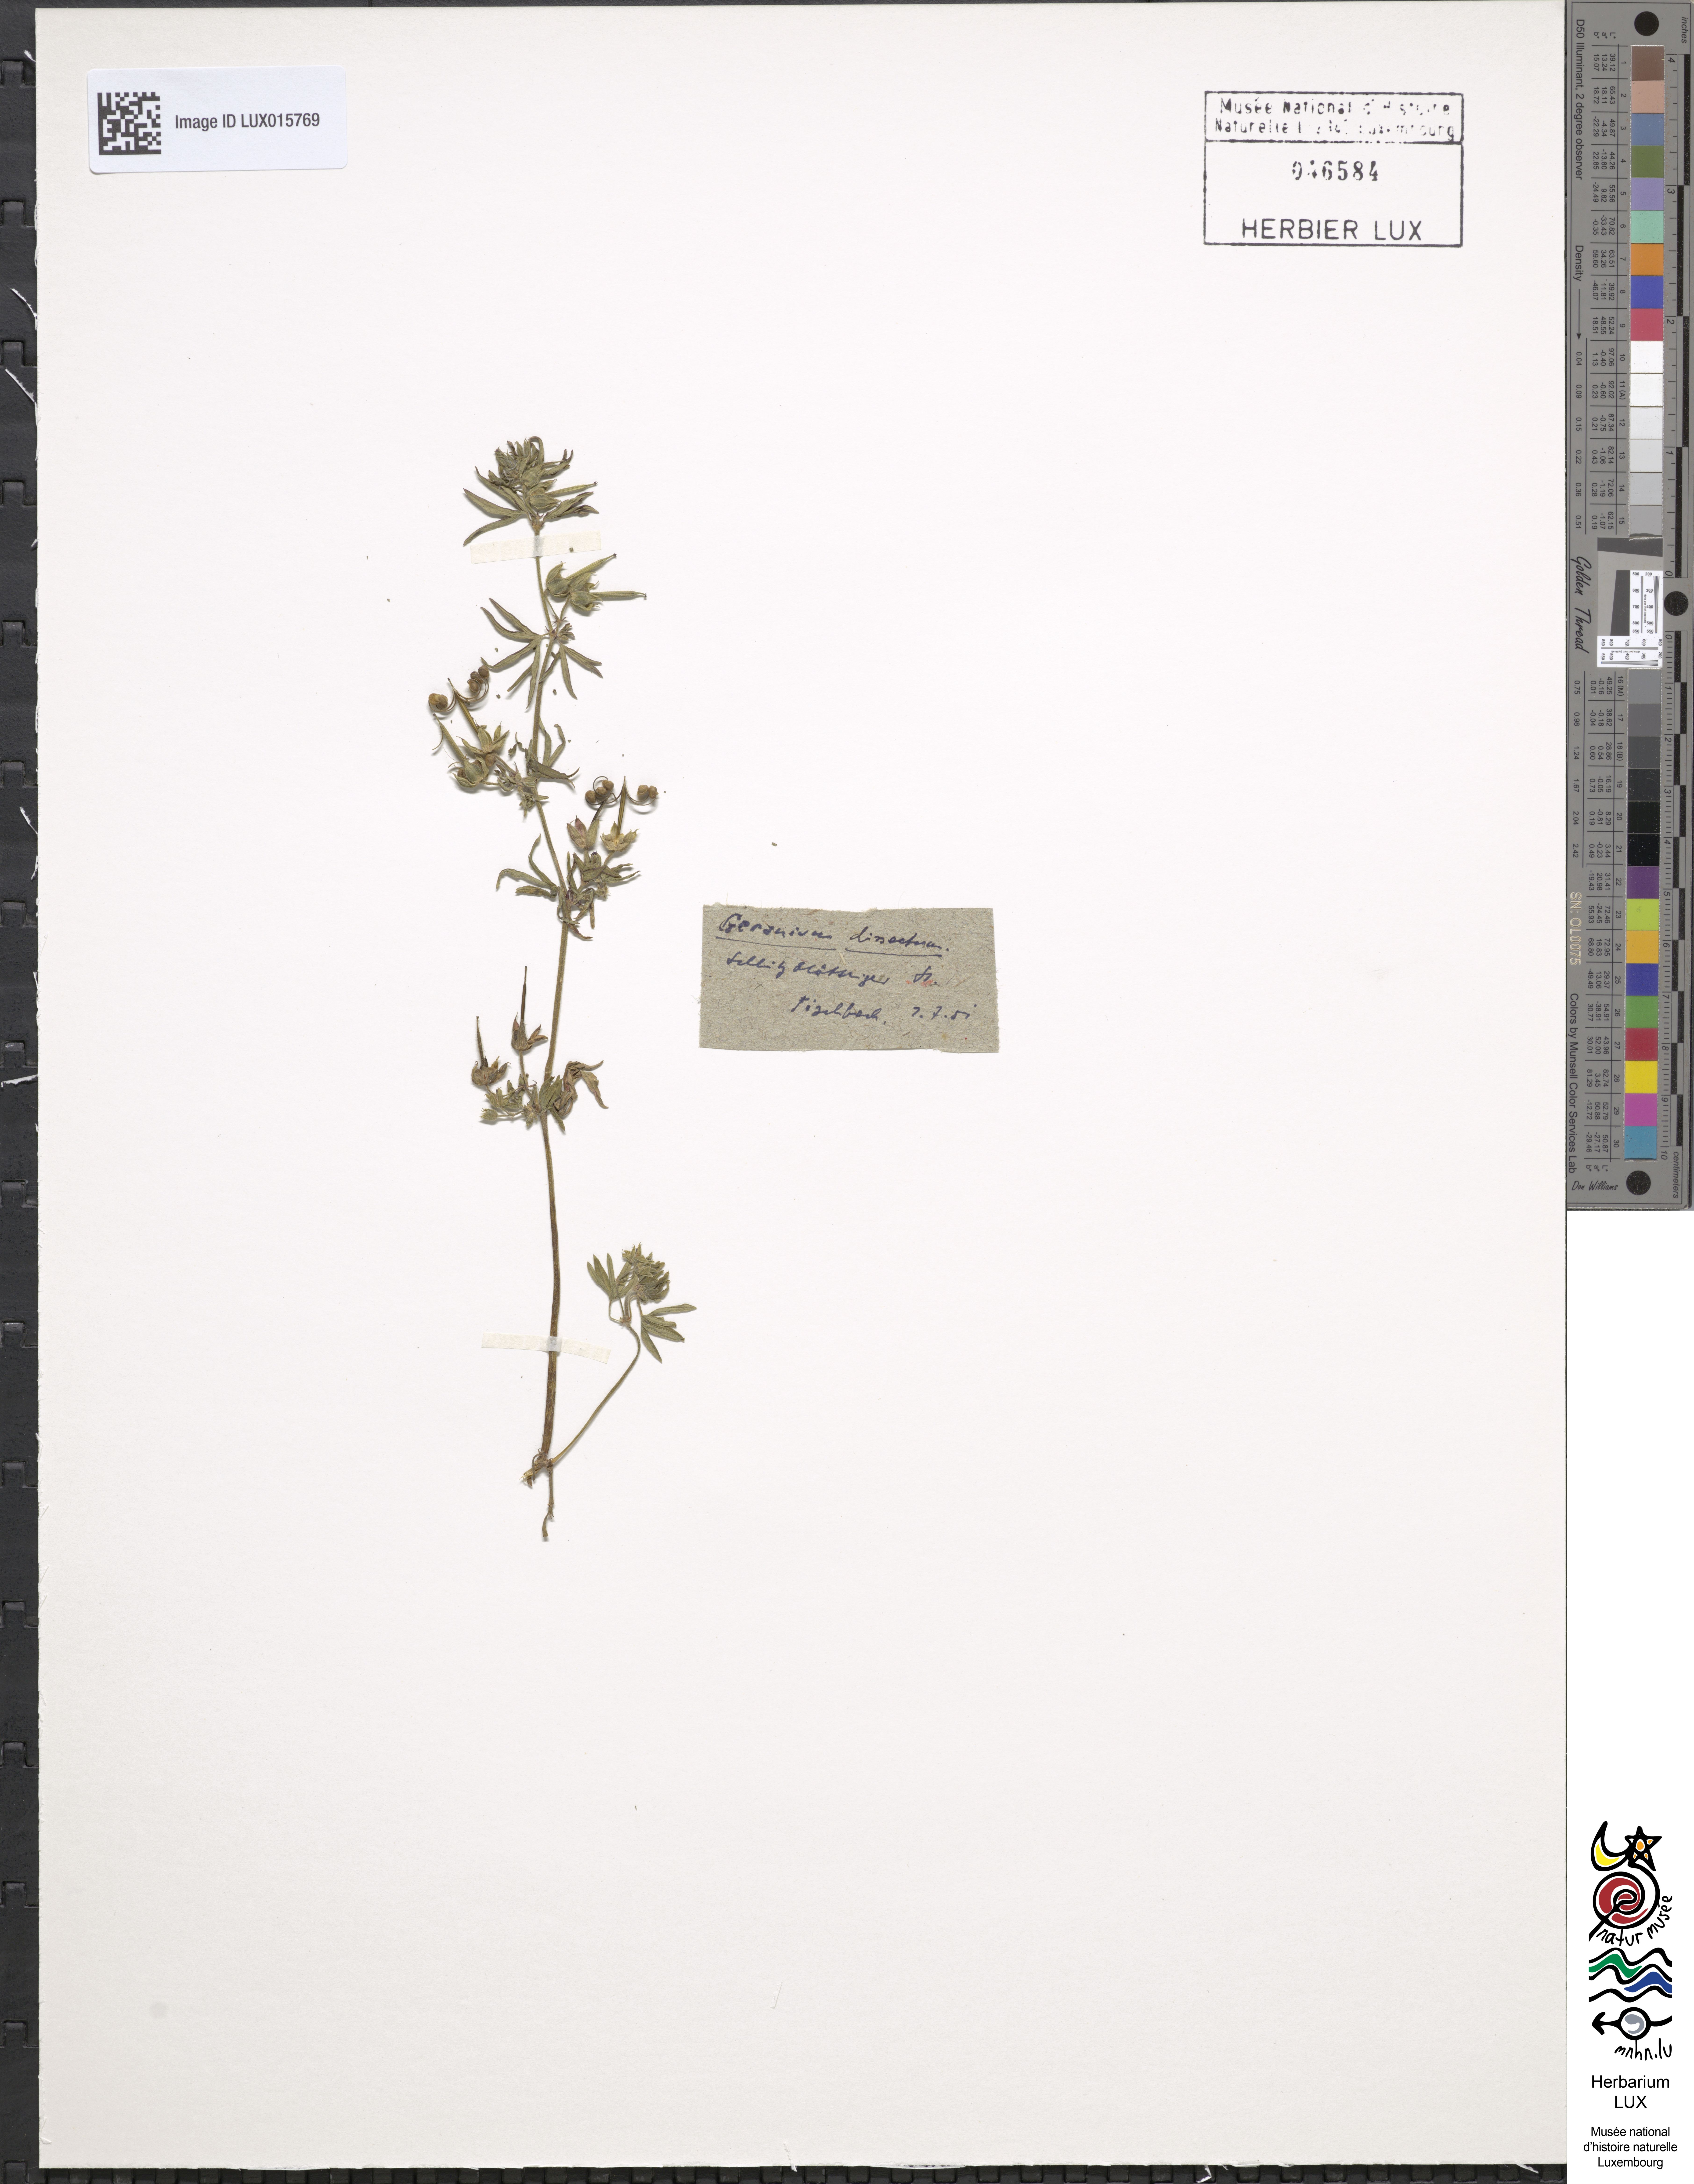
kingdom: Plantae
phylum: Tracheophyta
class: Magnoliopsida
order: Geraniales
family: Geraniaceae
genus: Geranium
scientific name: Geranium dissectum
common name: Cut-leaved crane's-bill
